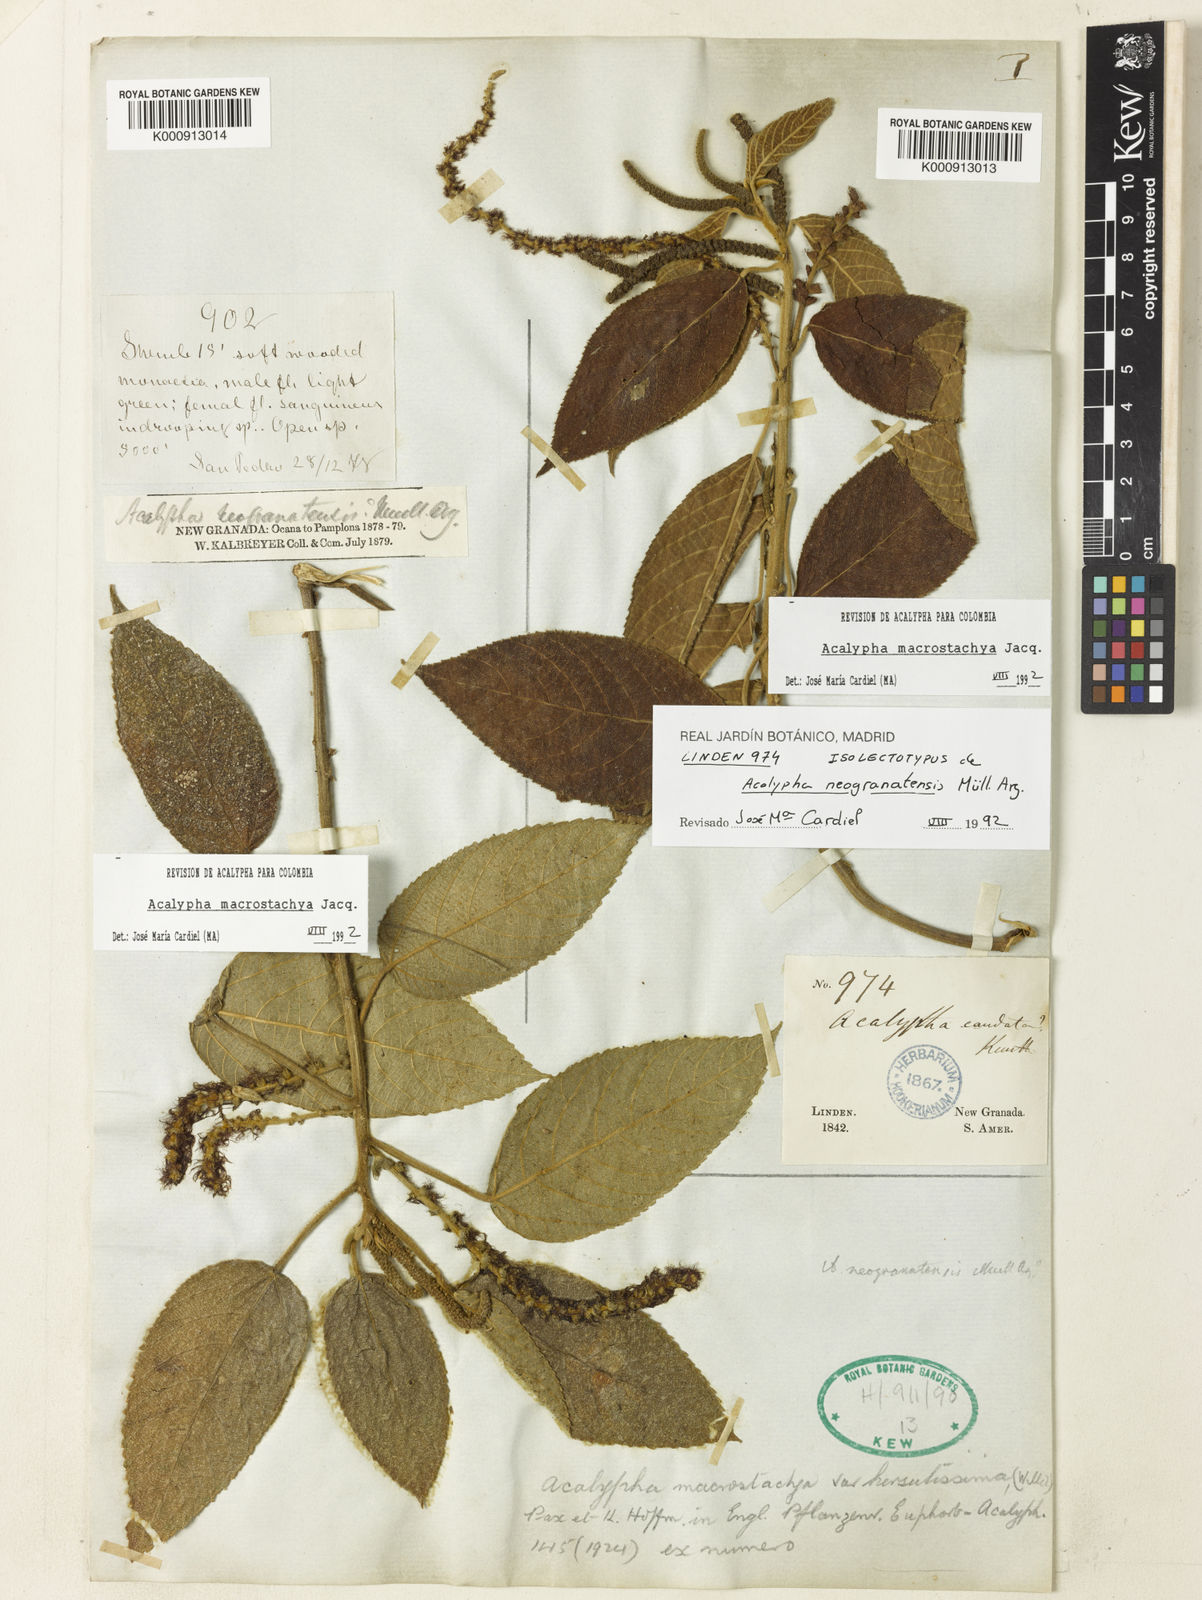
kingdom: Plantae
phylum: Tracheophyta
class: Magnoliopsida
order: Malpighiales
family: Euphorbiaceae
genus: Acalypha
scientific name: Acalypha macrostachya
